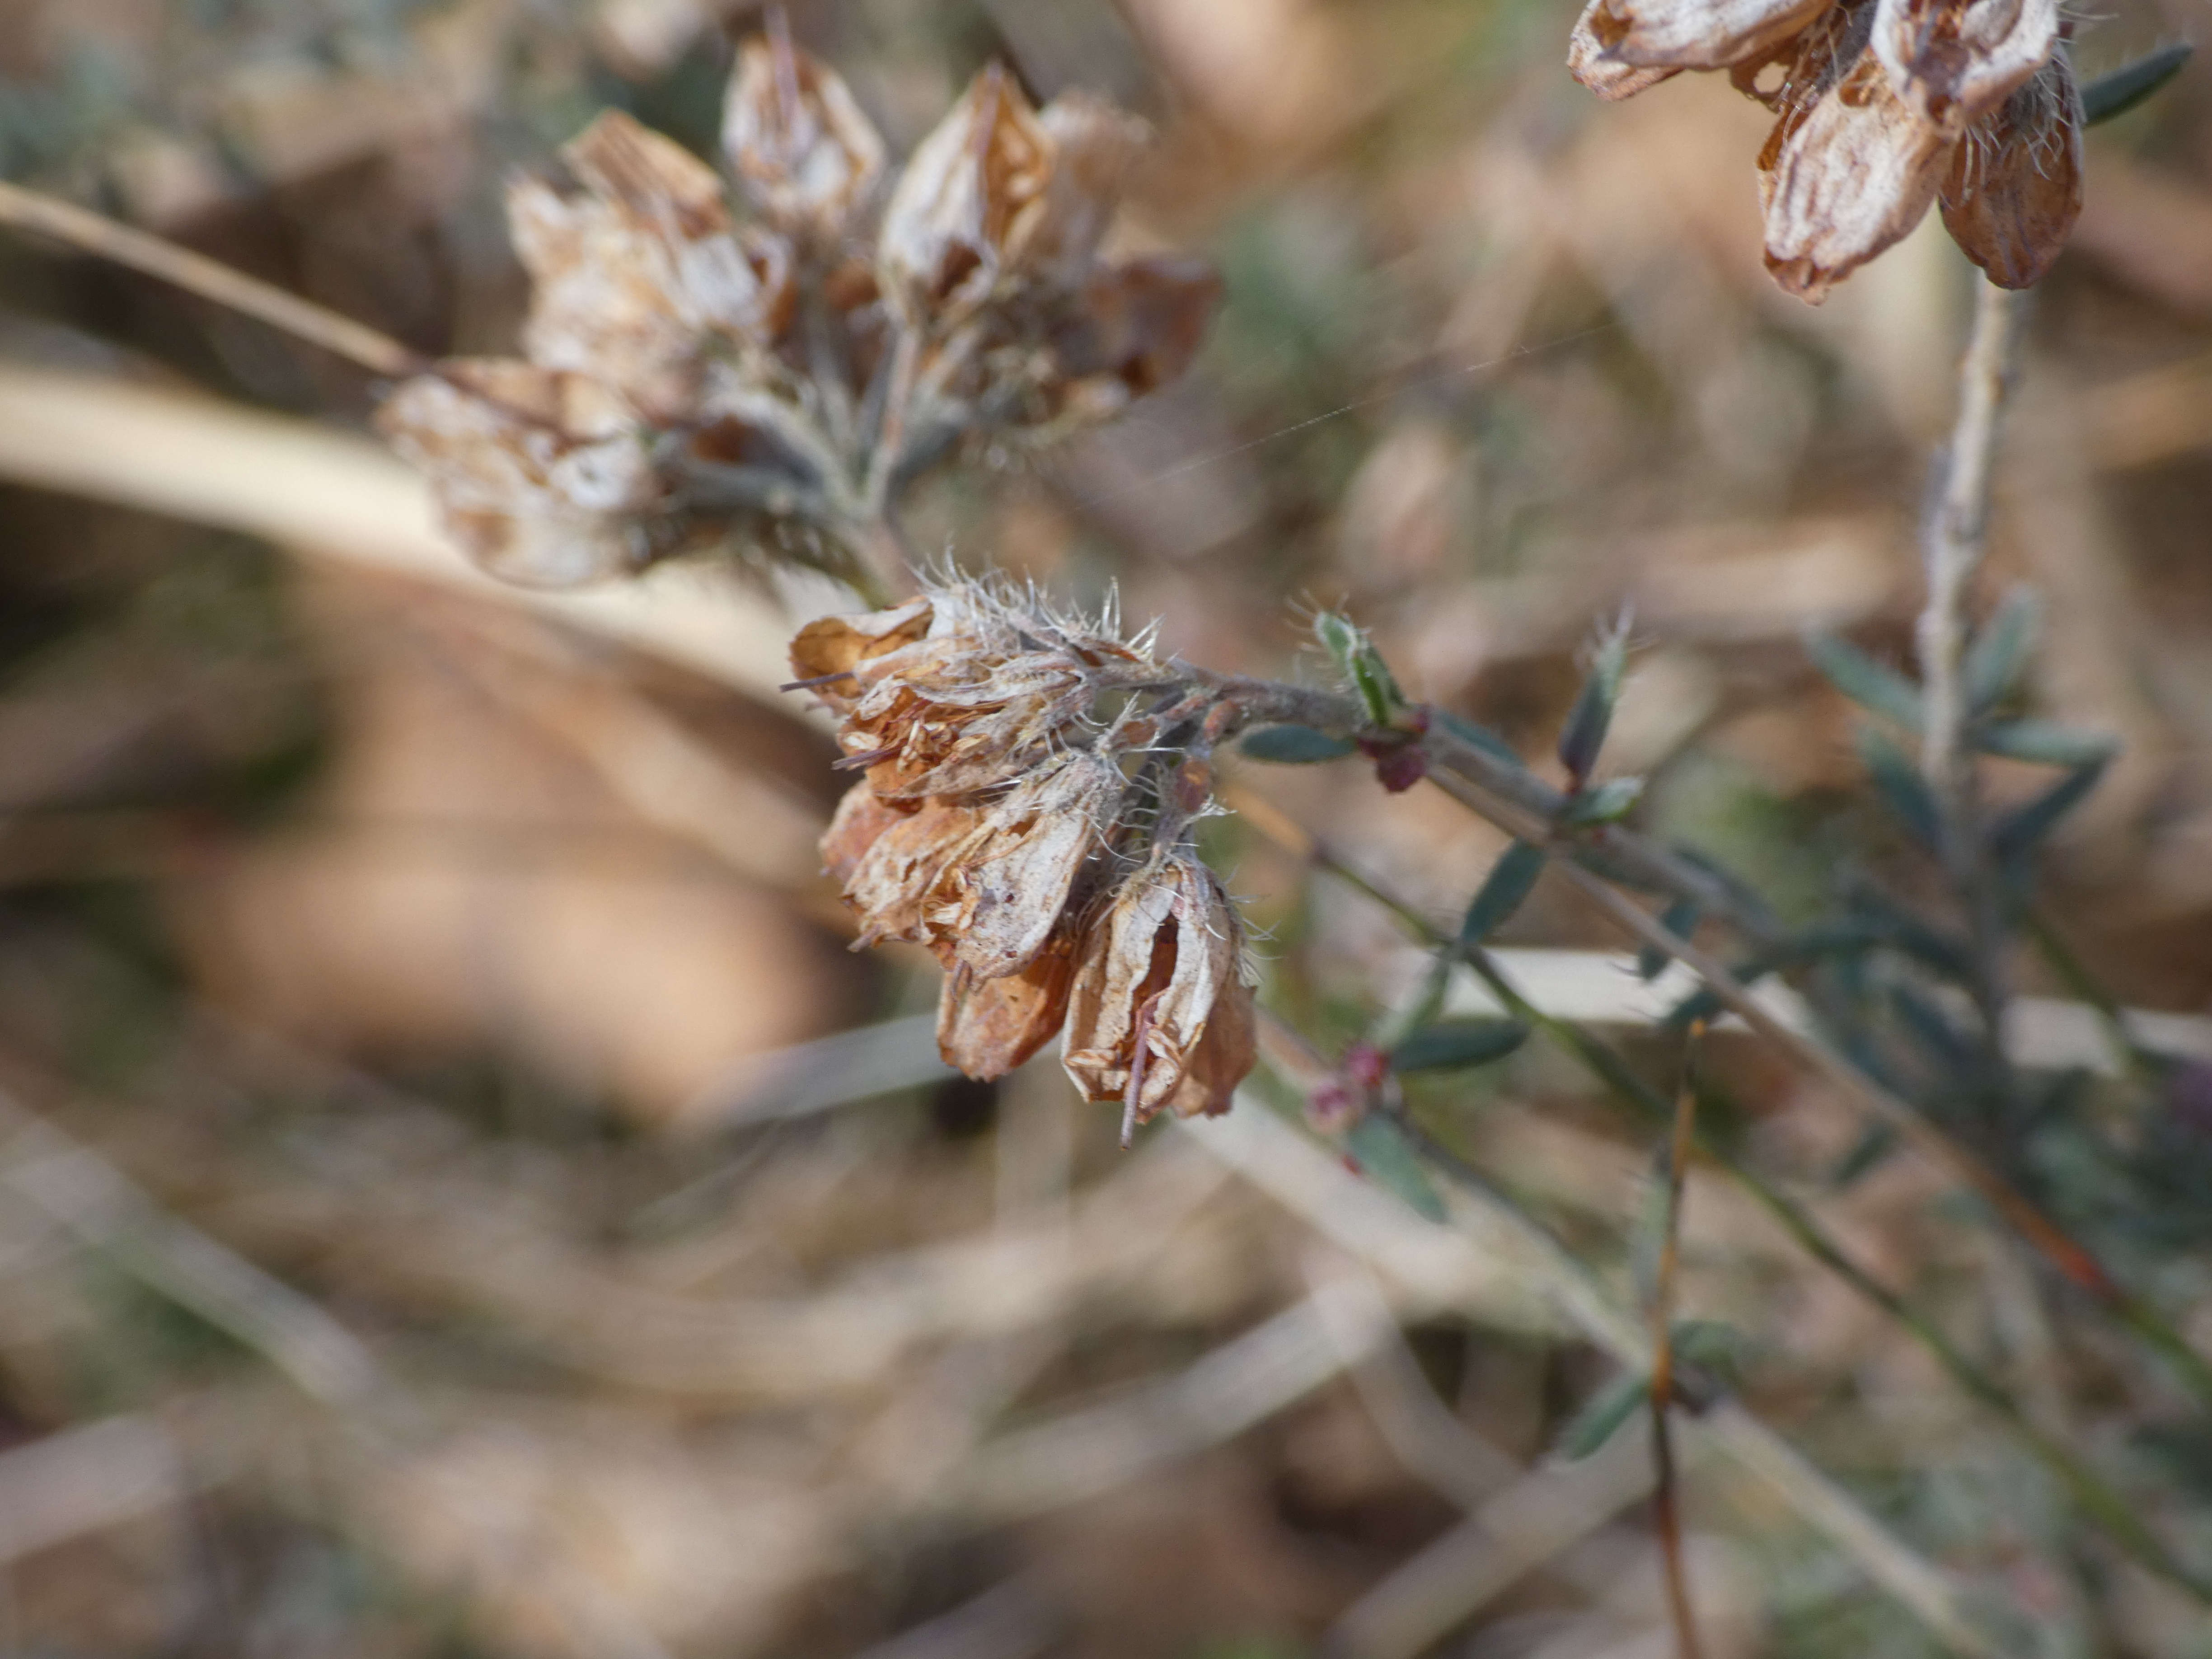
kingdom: Plantae
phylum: Tracheophyta
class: Magnoliopsida
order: Ericales
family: Ericaceae
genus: Erica
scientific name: Erica tetralix
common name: Klokkelyng
